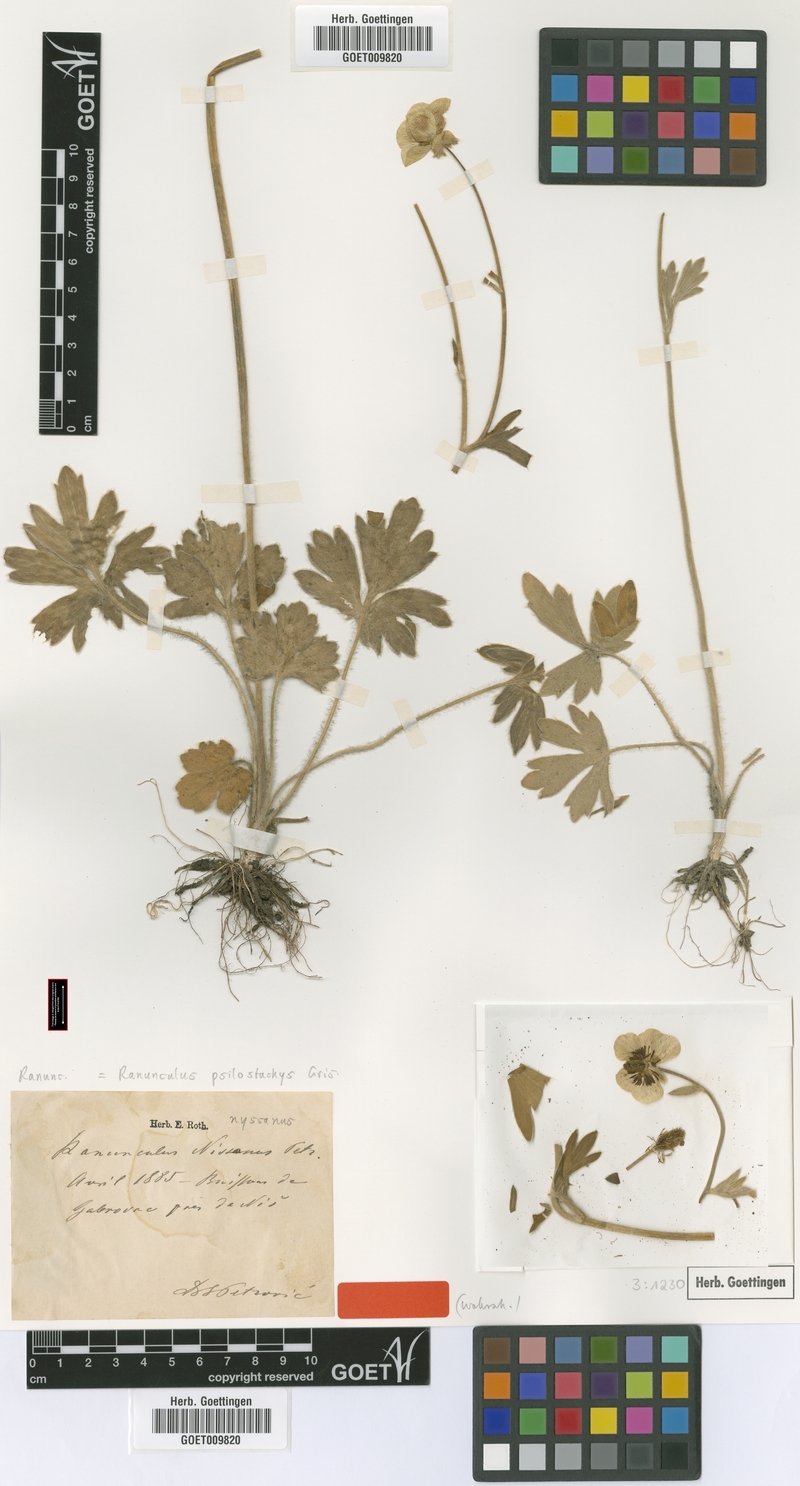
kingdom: Plantae
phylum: Tracheophyta
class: Magnoliopsida
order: Ranunculales
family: Ranunculaceae
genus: Ranunculus
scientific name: Ranunculus psilostachys
